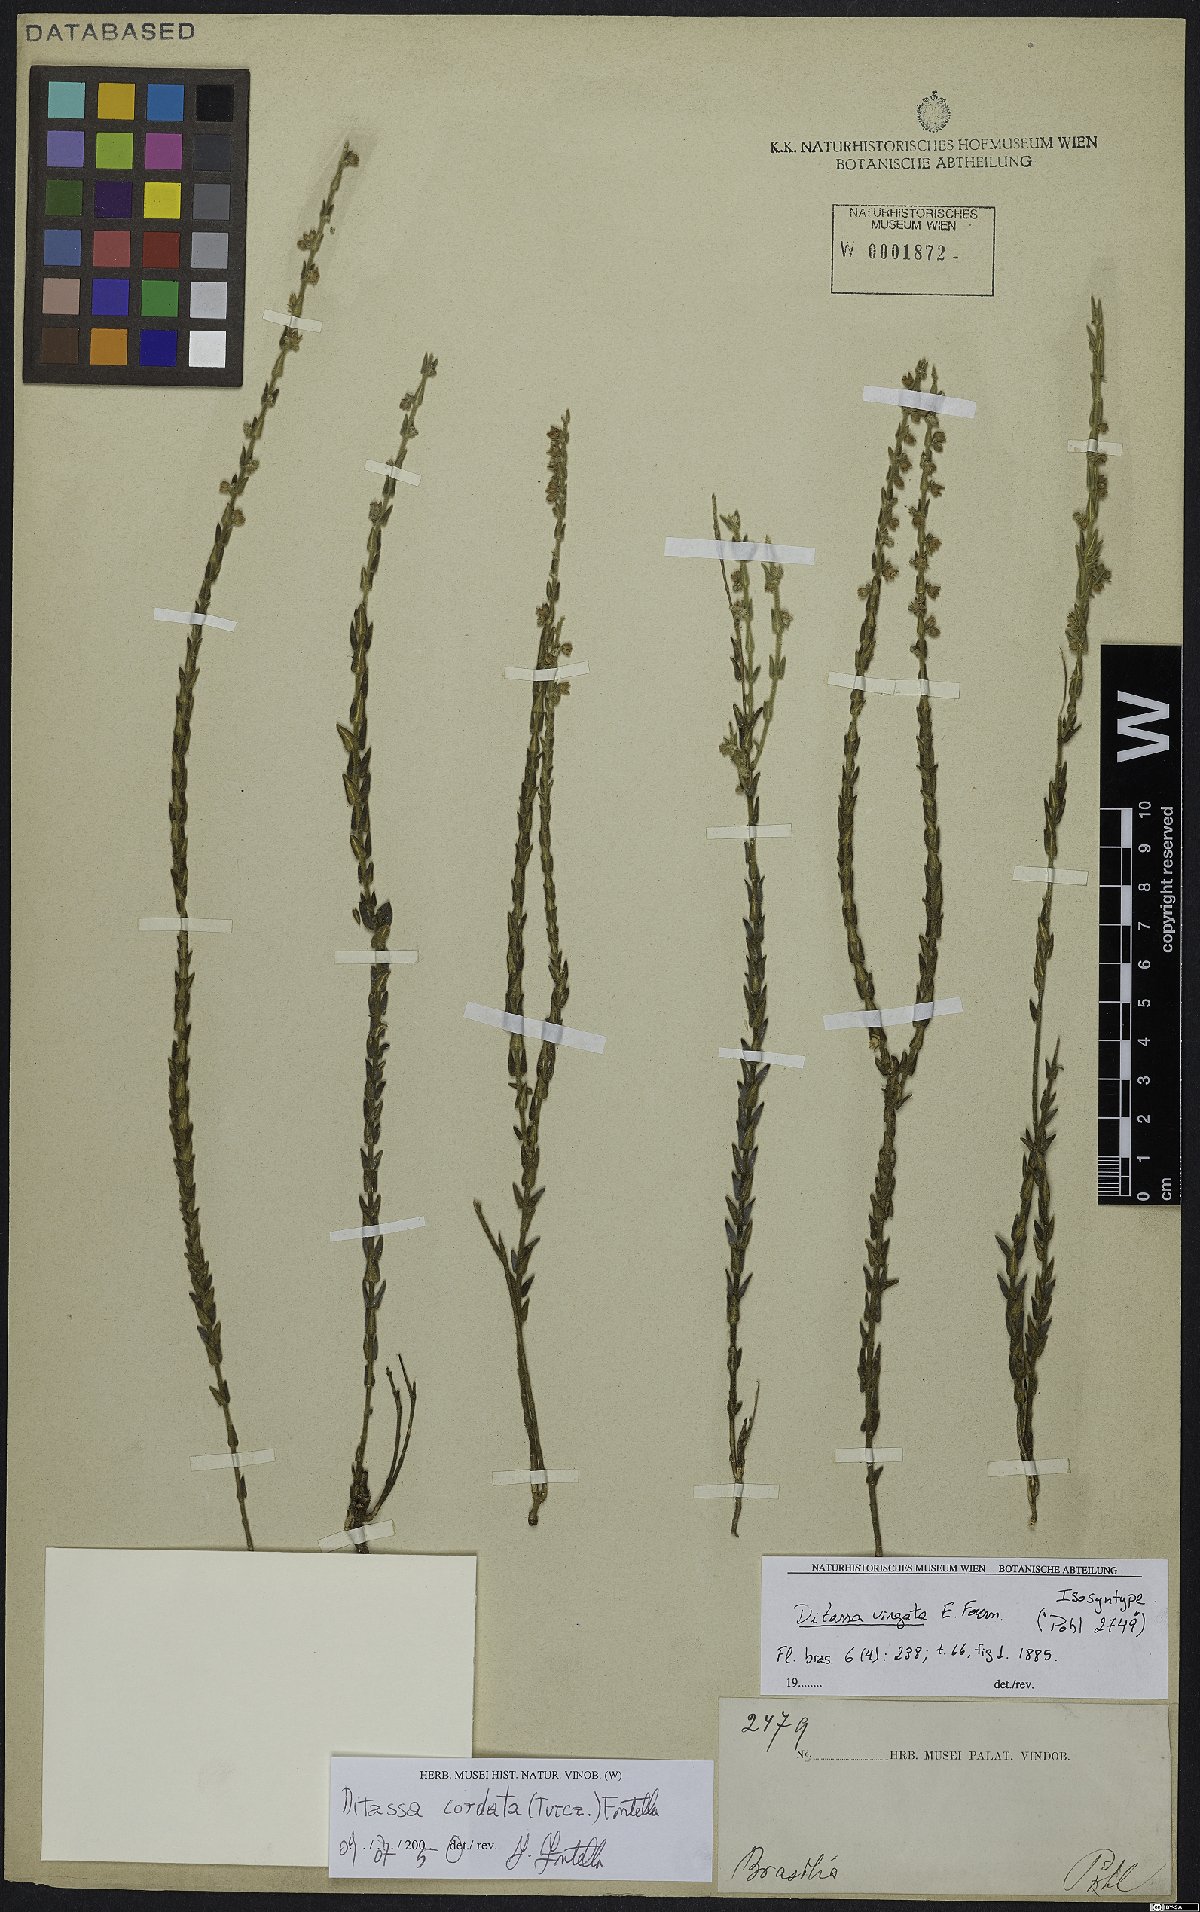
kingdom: Plantae
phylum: Tracheophyta
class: Magnoliopsida
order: Gentianales
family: Apocynaceae
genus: Minaria
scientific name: Minaria cordata
